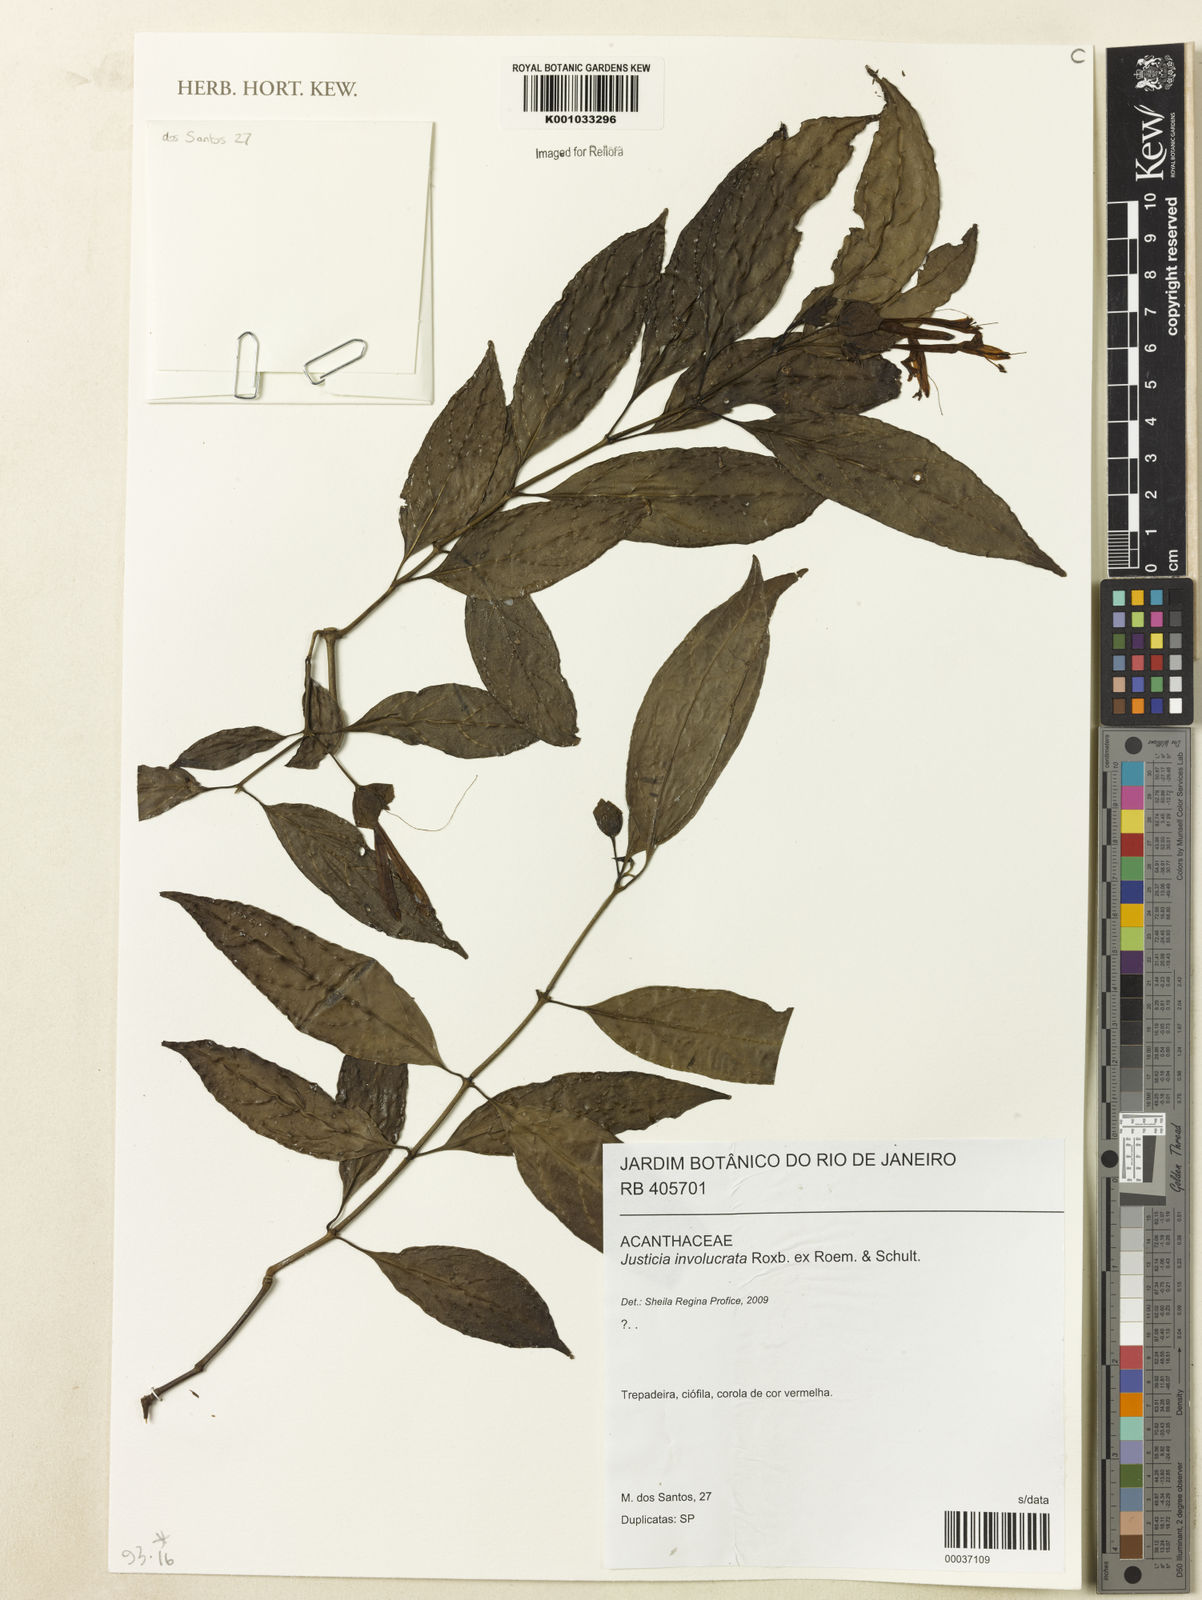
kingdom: Plantae
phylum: Tracheophyta
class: Magnoliopsida
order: Lamiales
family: Acanthaceae
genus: Justicia
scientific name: Justicia involucrata
